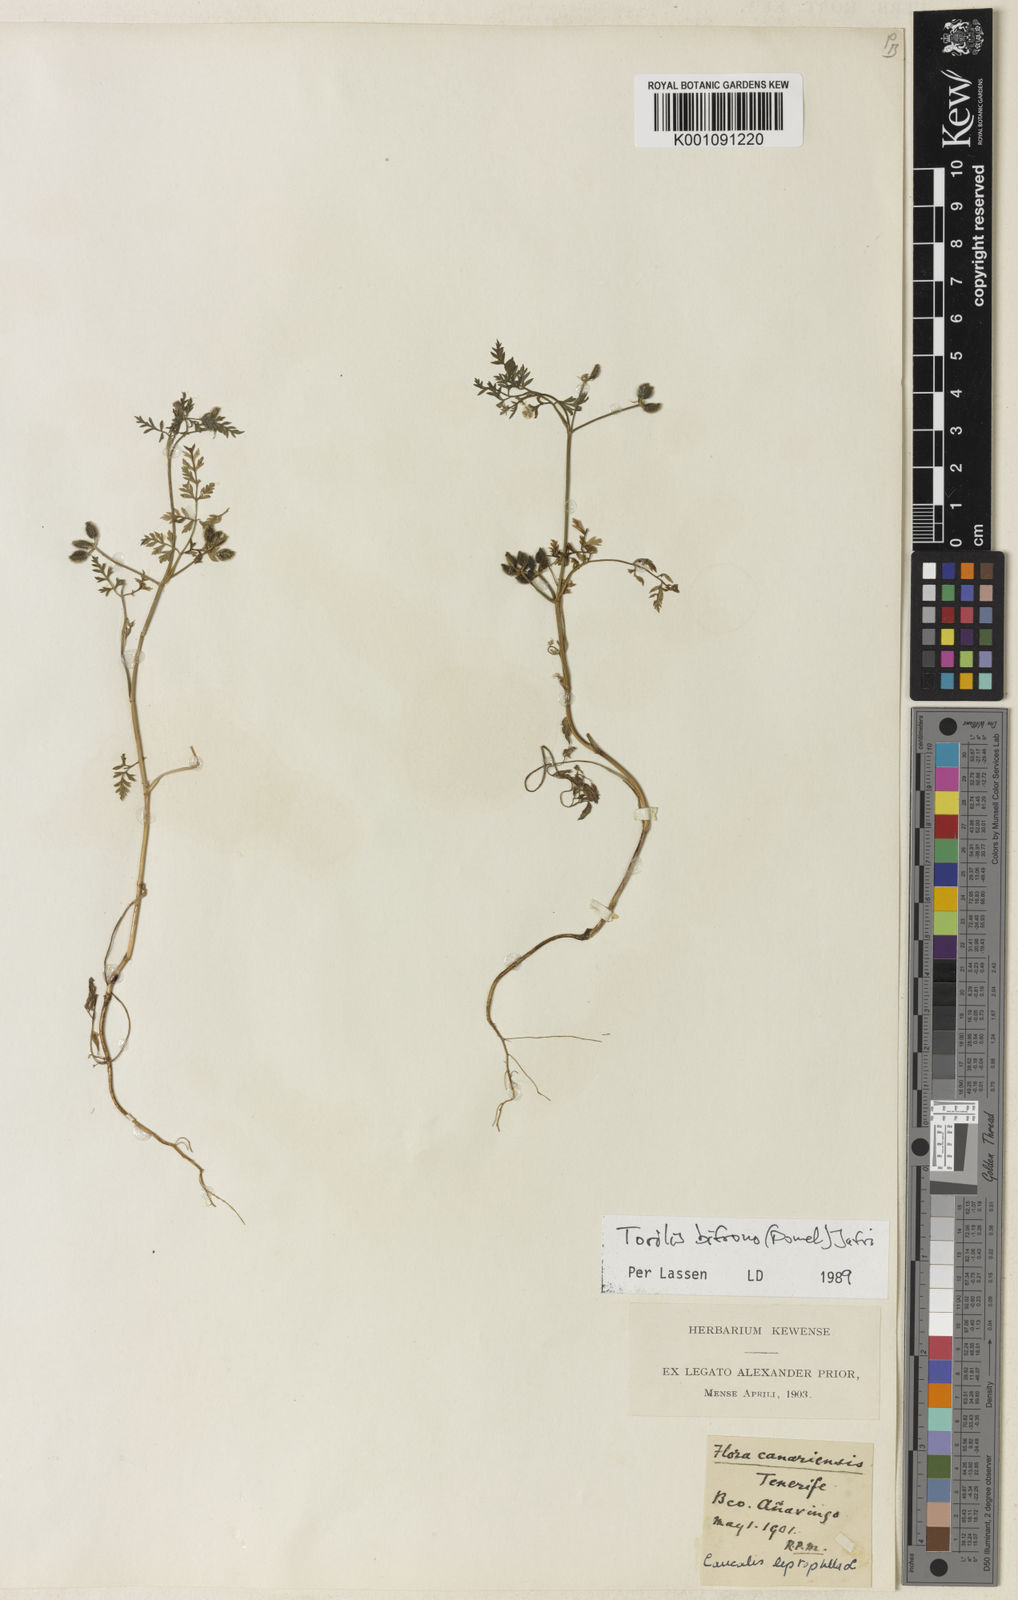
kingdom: Plantae
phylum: Tracheophyta
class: Magnoliopsida
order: Apiales
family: Apiaceae
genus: Torilis
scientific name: Torilis elongata
